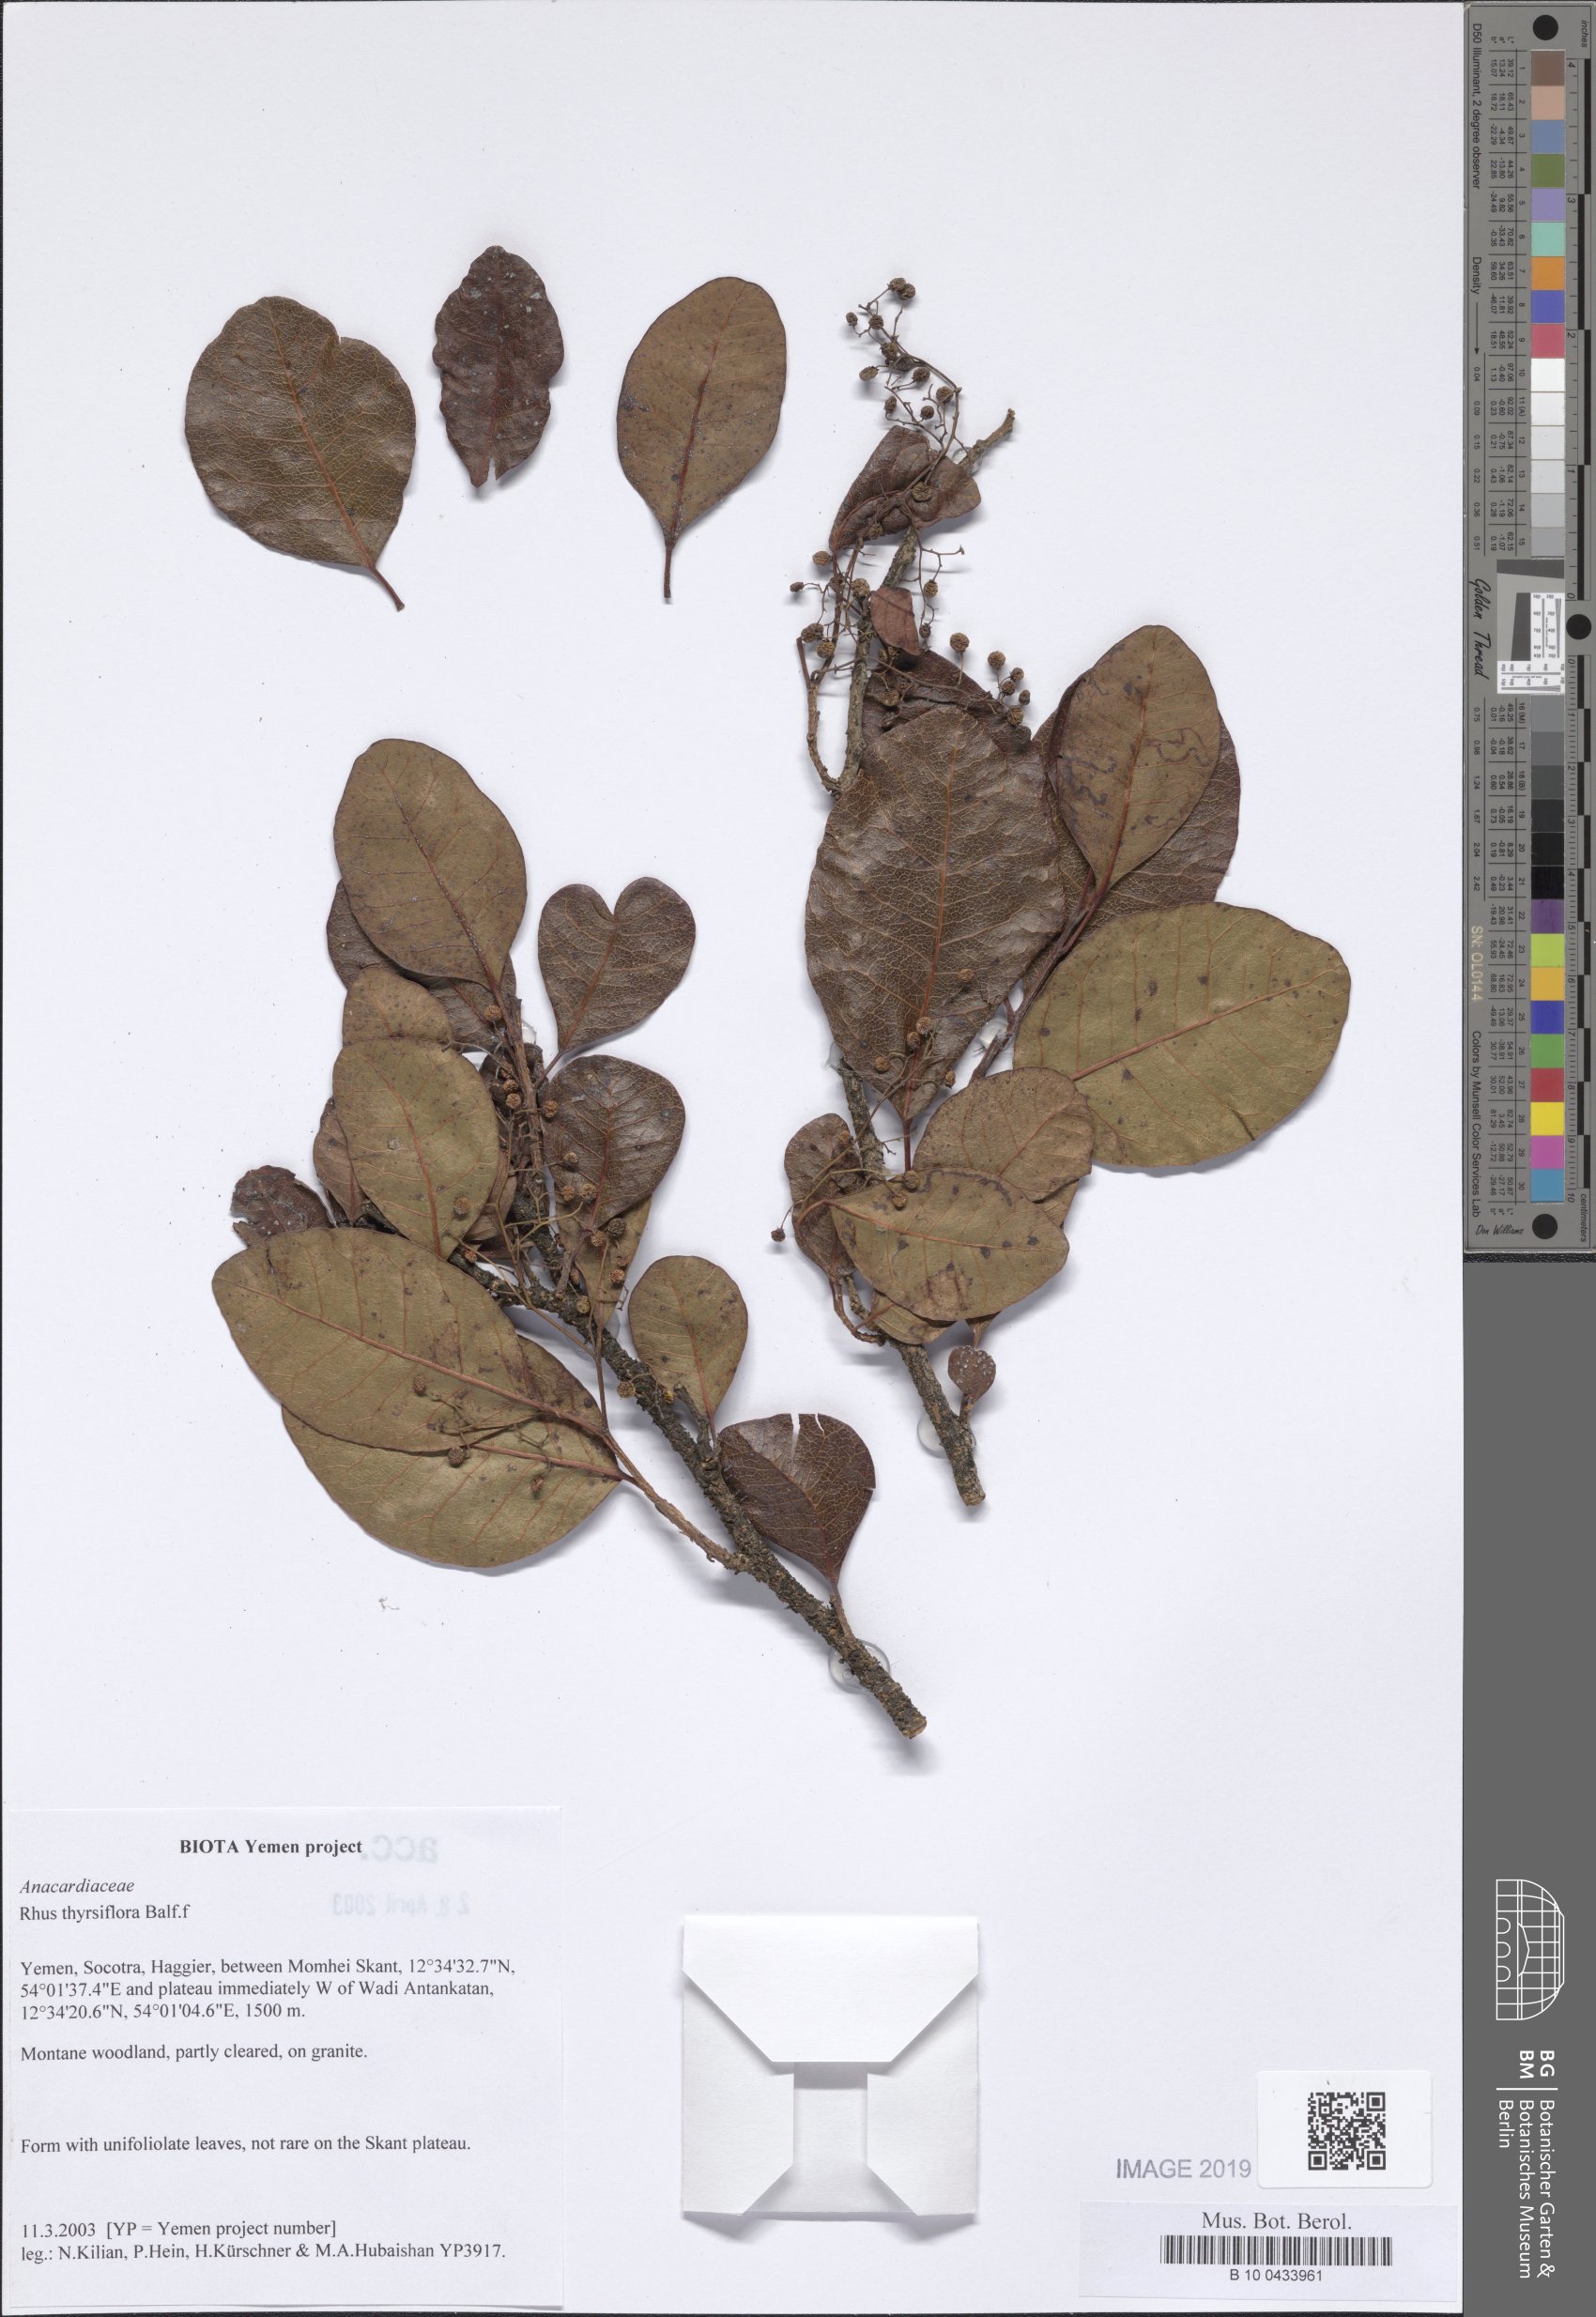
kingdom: Plantae
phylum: Tracheophyta
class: Magnoliopsida
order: Sapindales
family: Anacardiaceae
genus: Searsia
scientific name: Searsia thyrsiflora
